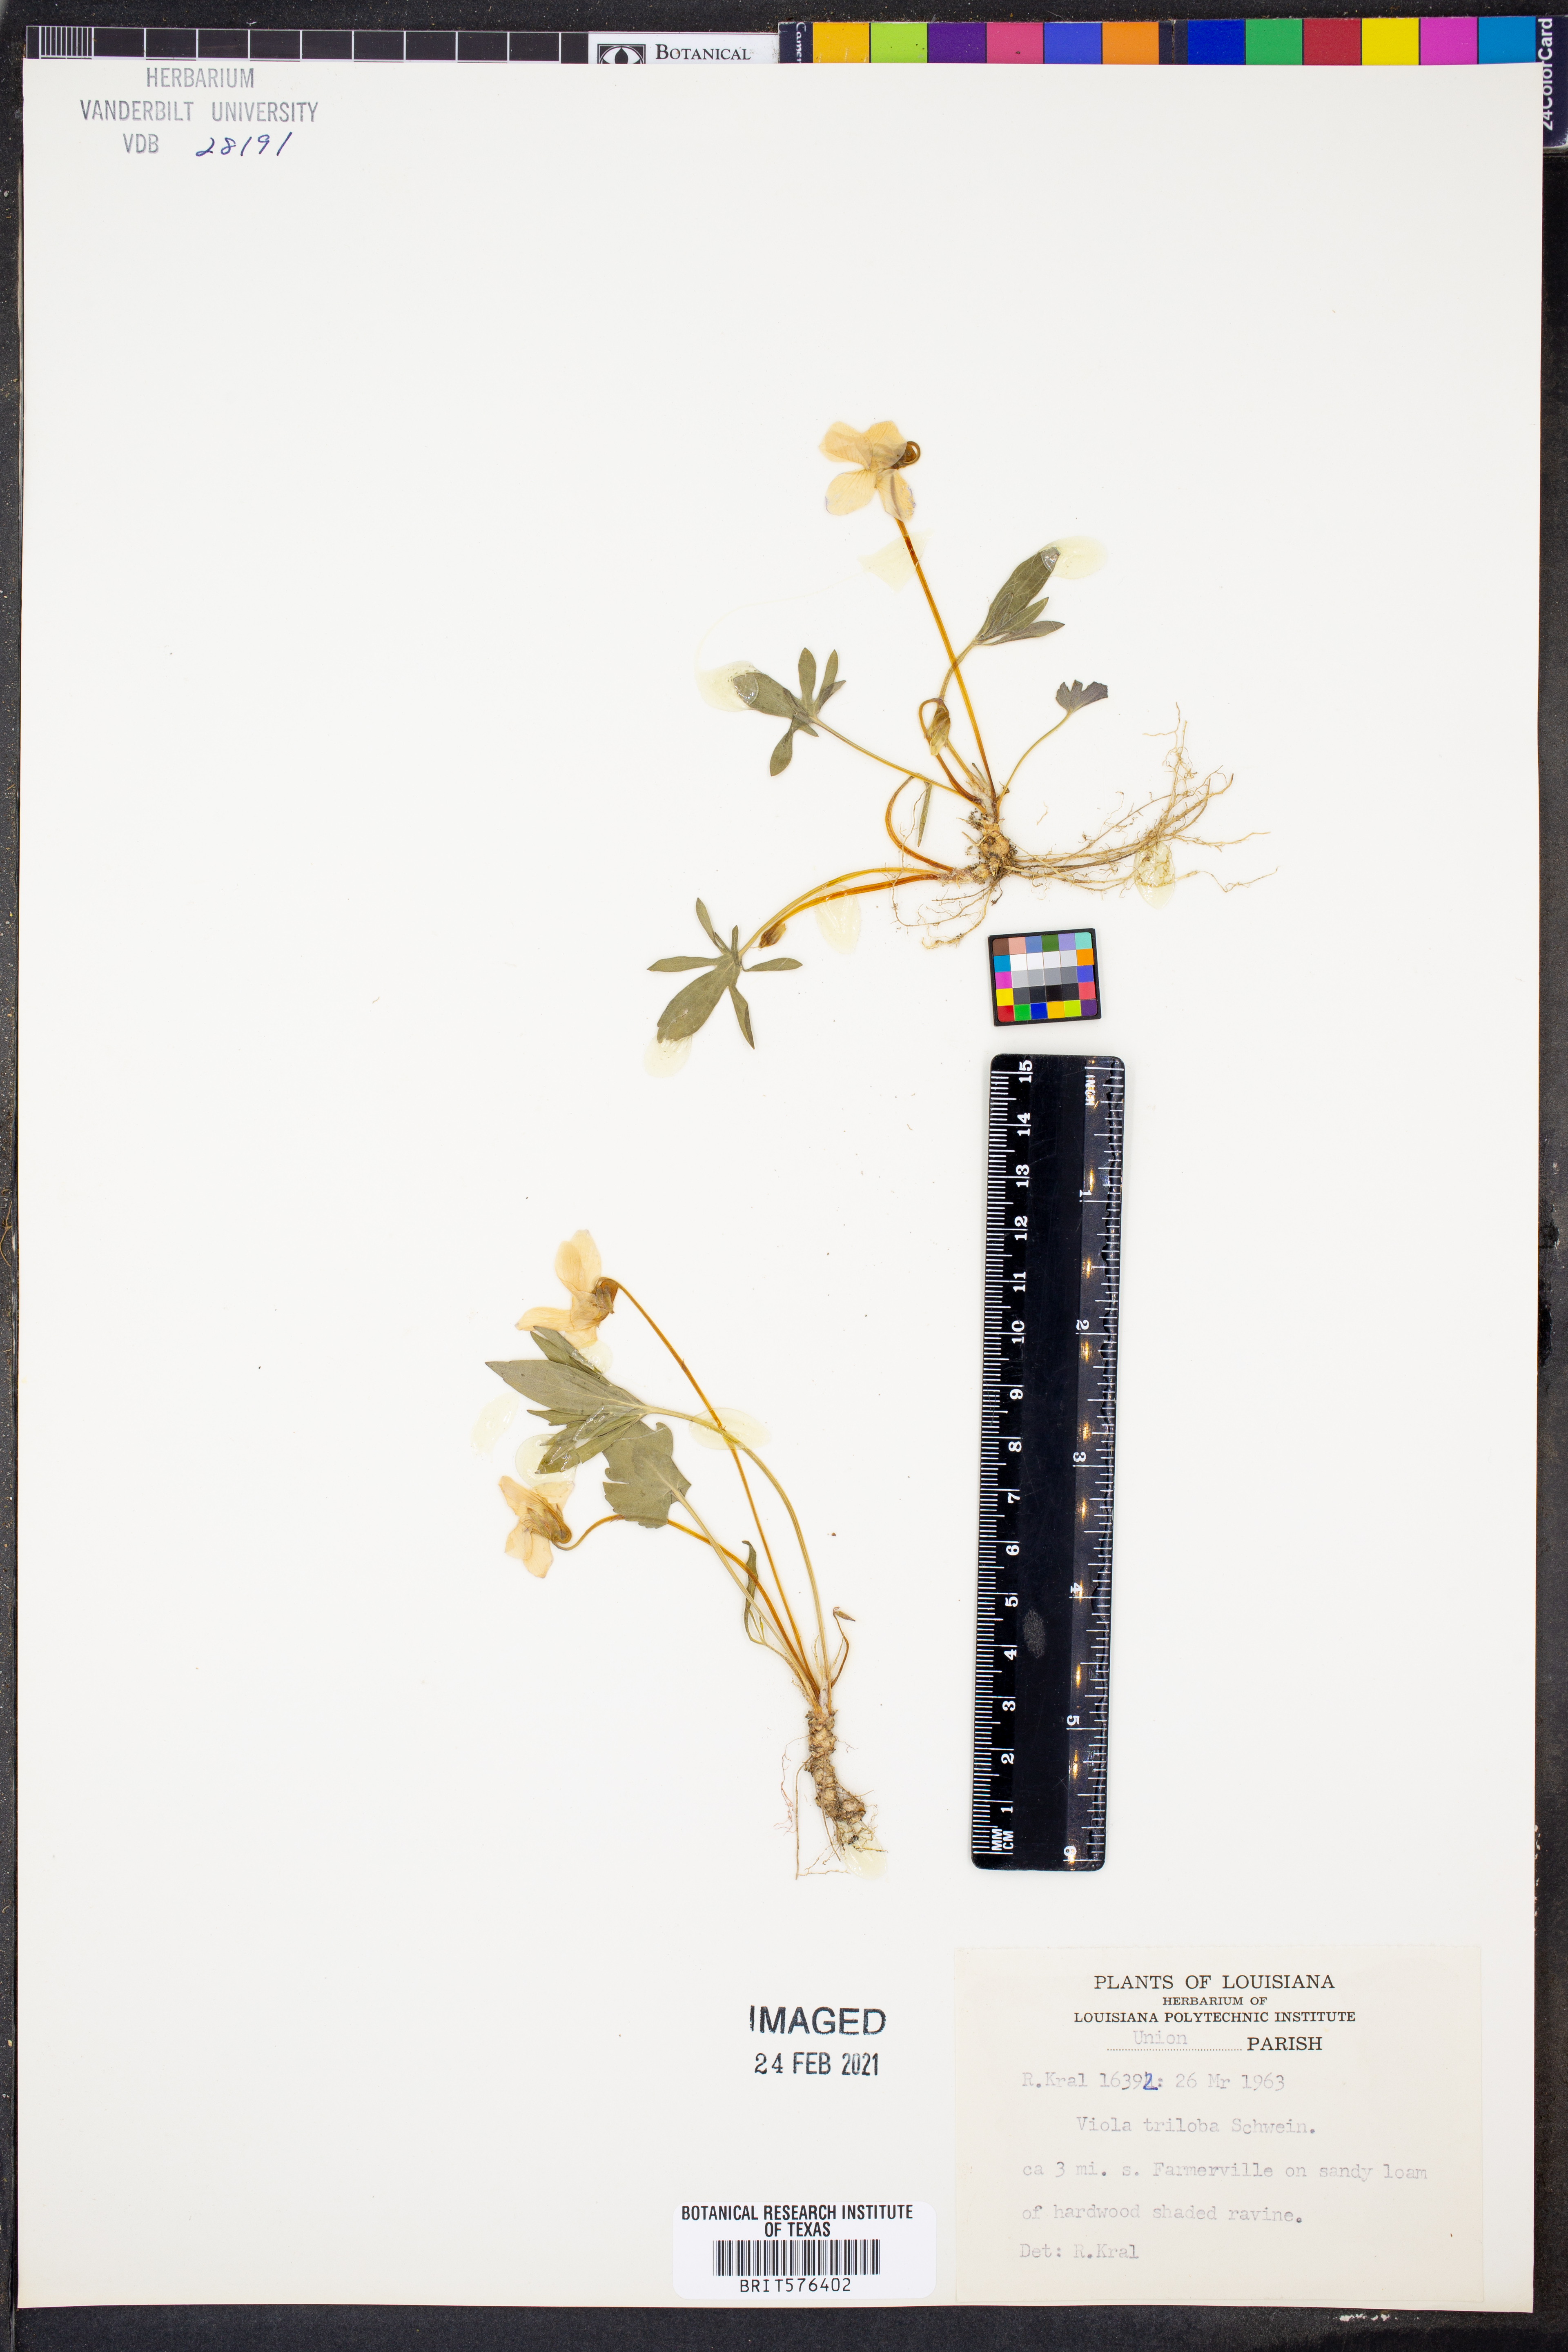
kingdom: Plantae
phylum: Tracheophyta
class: Magnoliopsida
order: Malpighiales
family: Violaceae
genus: Viola
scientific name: Viola palmata
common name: Early blue violet
